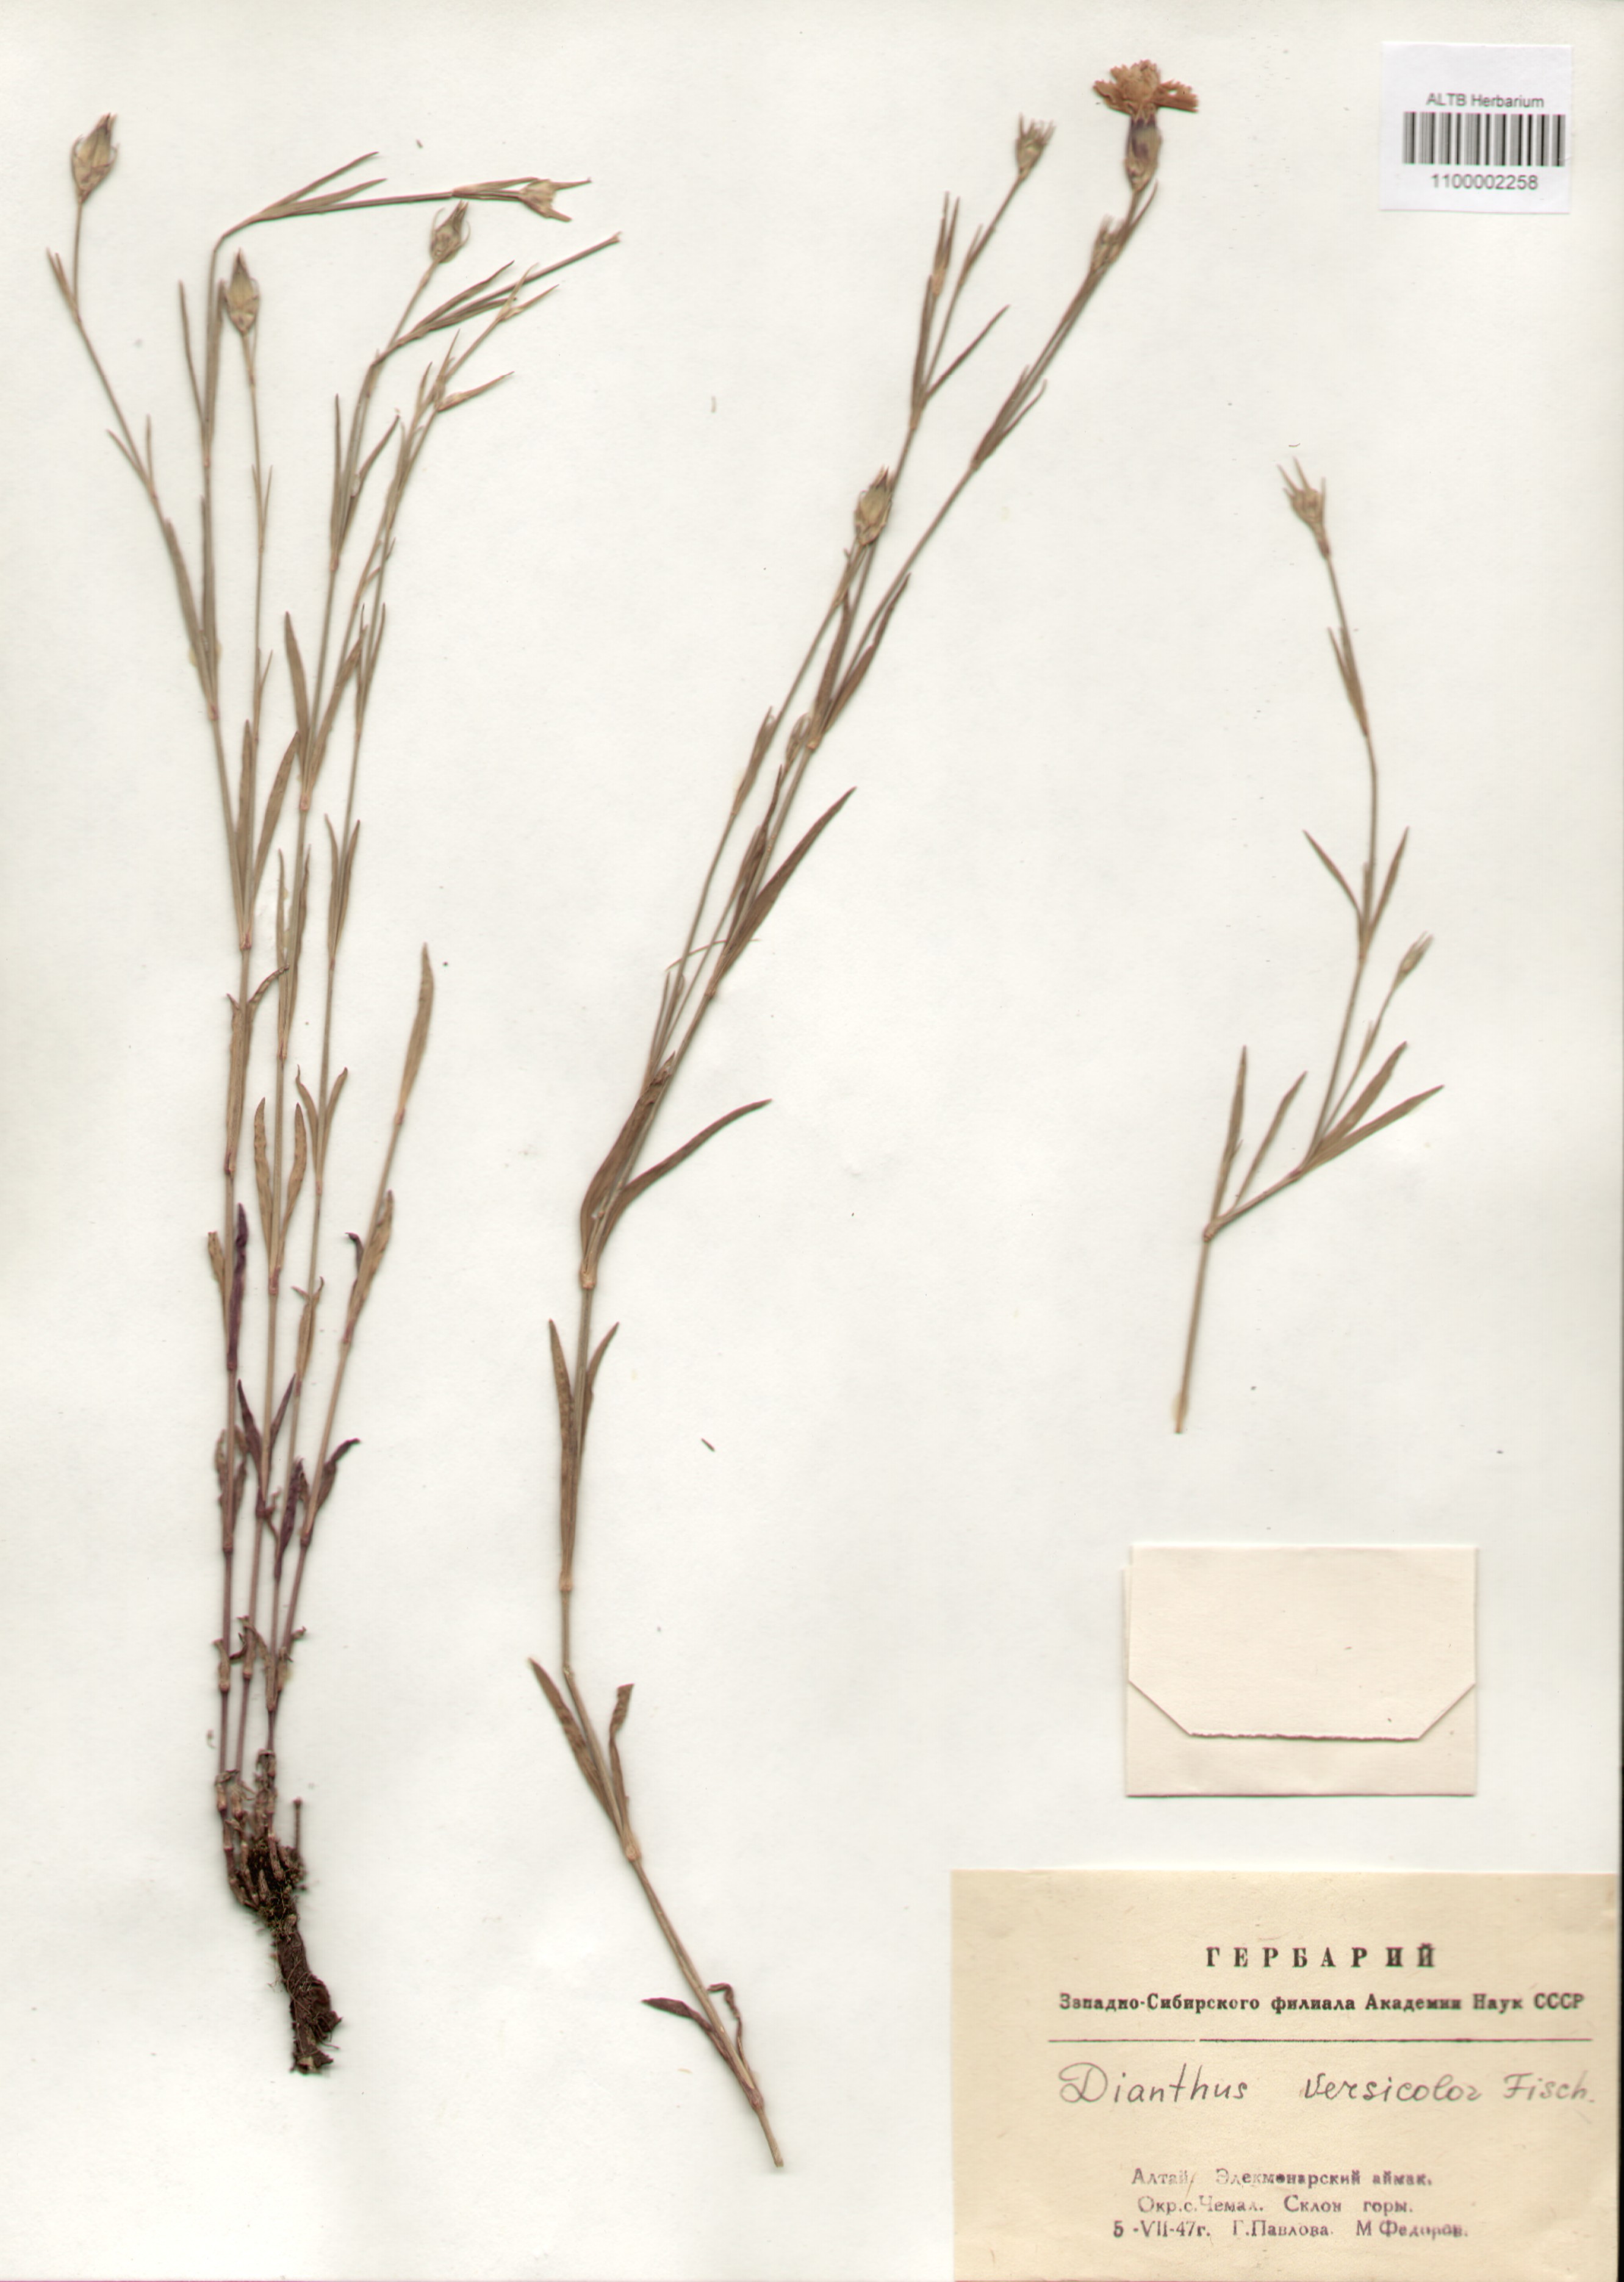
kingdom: Plantae
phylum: Tracheophyta
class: Magnoliopsida
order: Caryophyllales
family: Caryophyllaceae
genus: Dianthus
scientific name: Dianthus chinensis
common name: Rainbow pink
